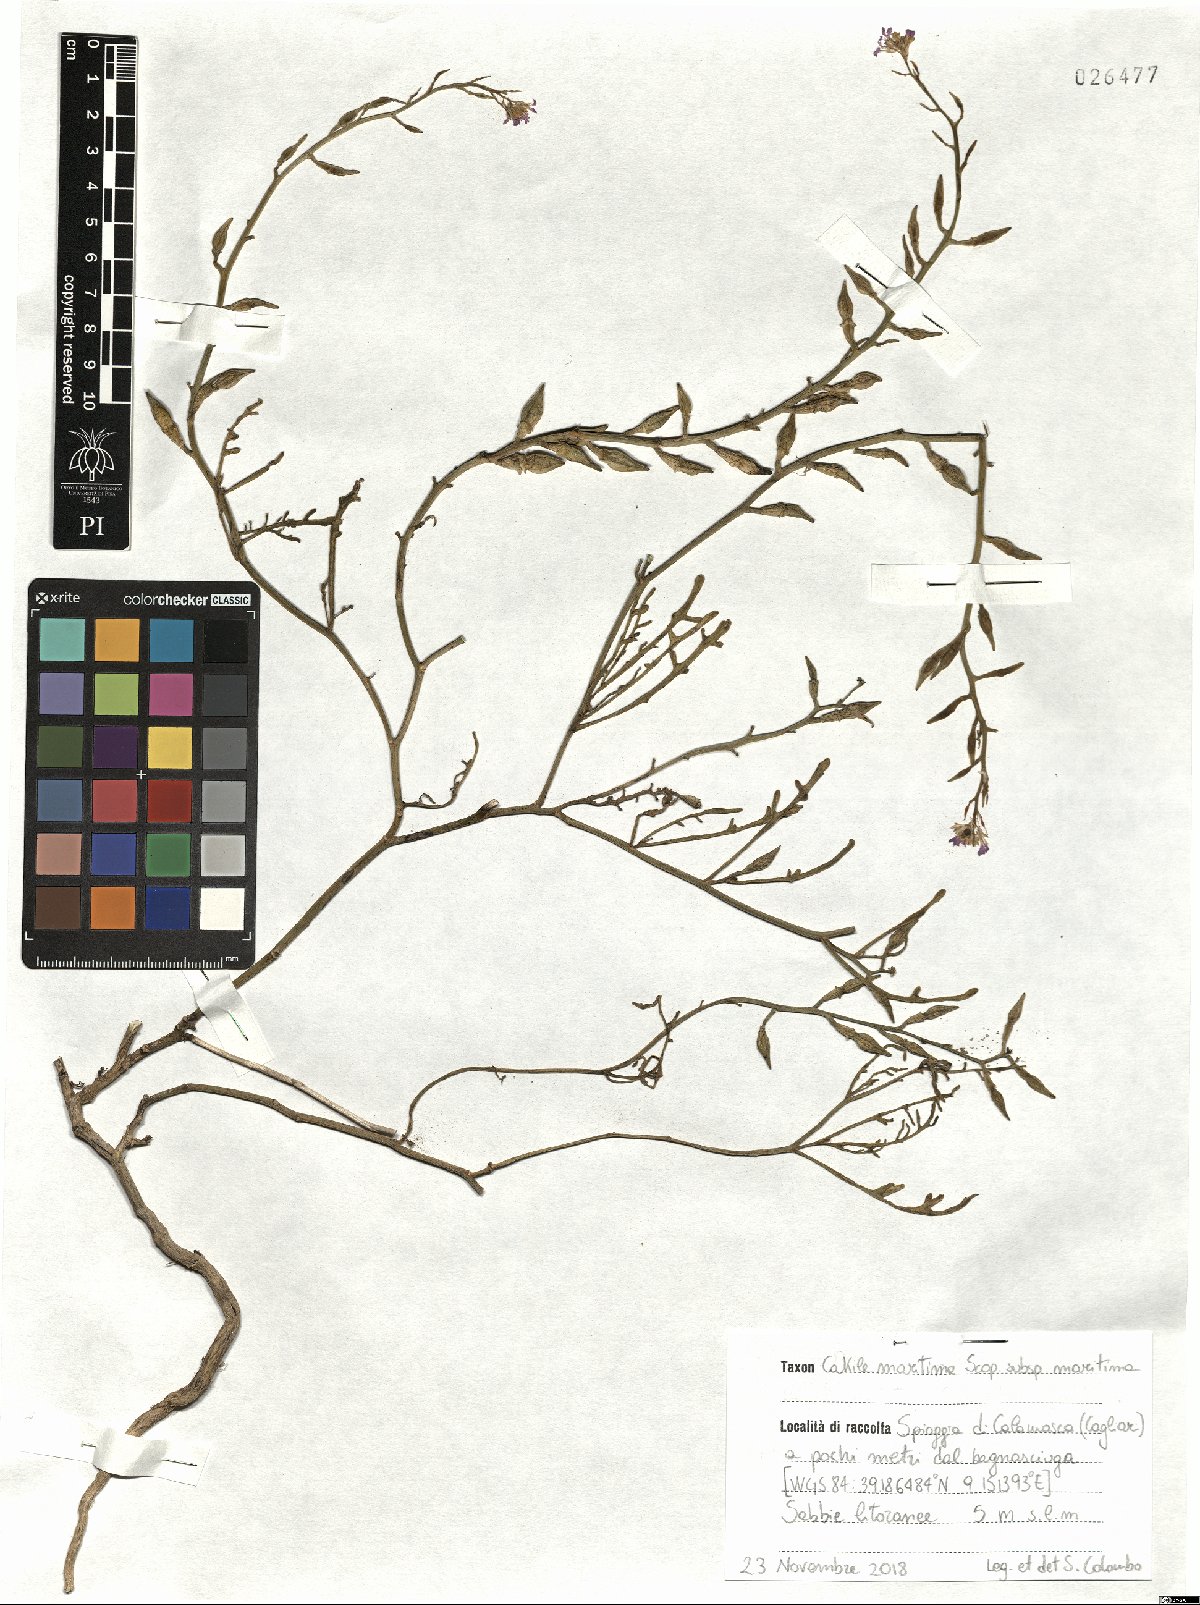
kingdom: Plantae
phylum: Tracheophyta
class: Magnoliopsida
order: Brassicales
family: Brassicaceae
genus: Cakile
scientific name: Cakile maritima
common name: Sea rocket
